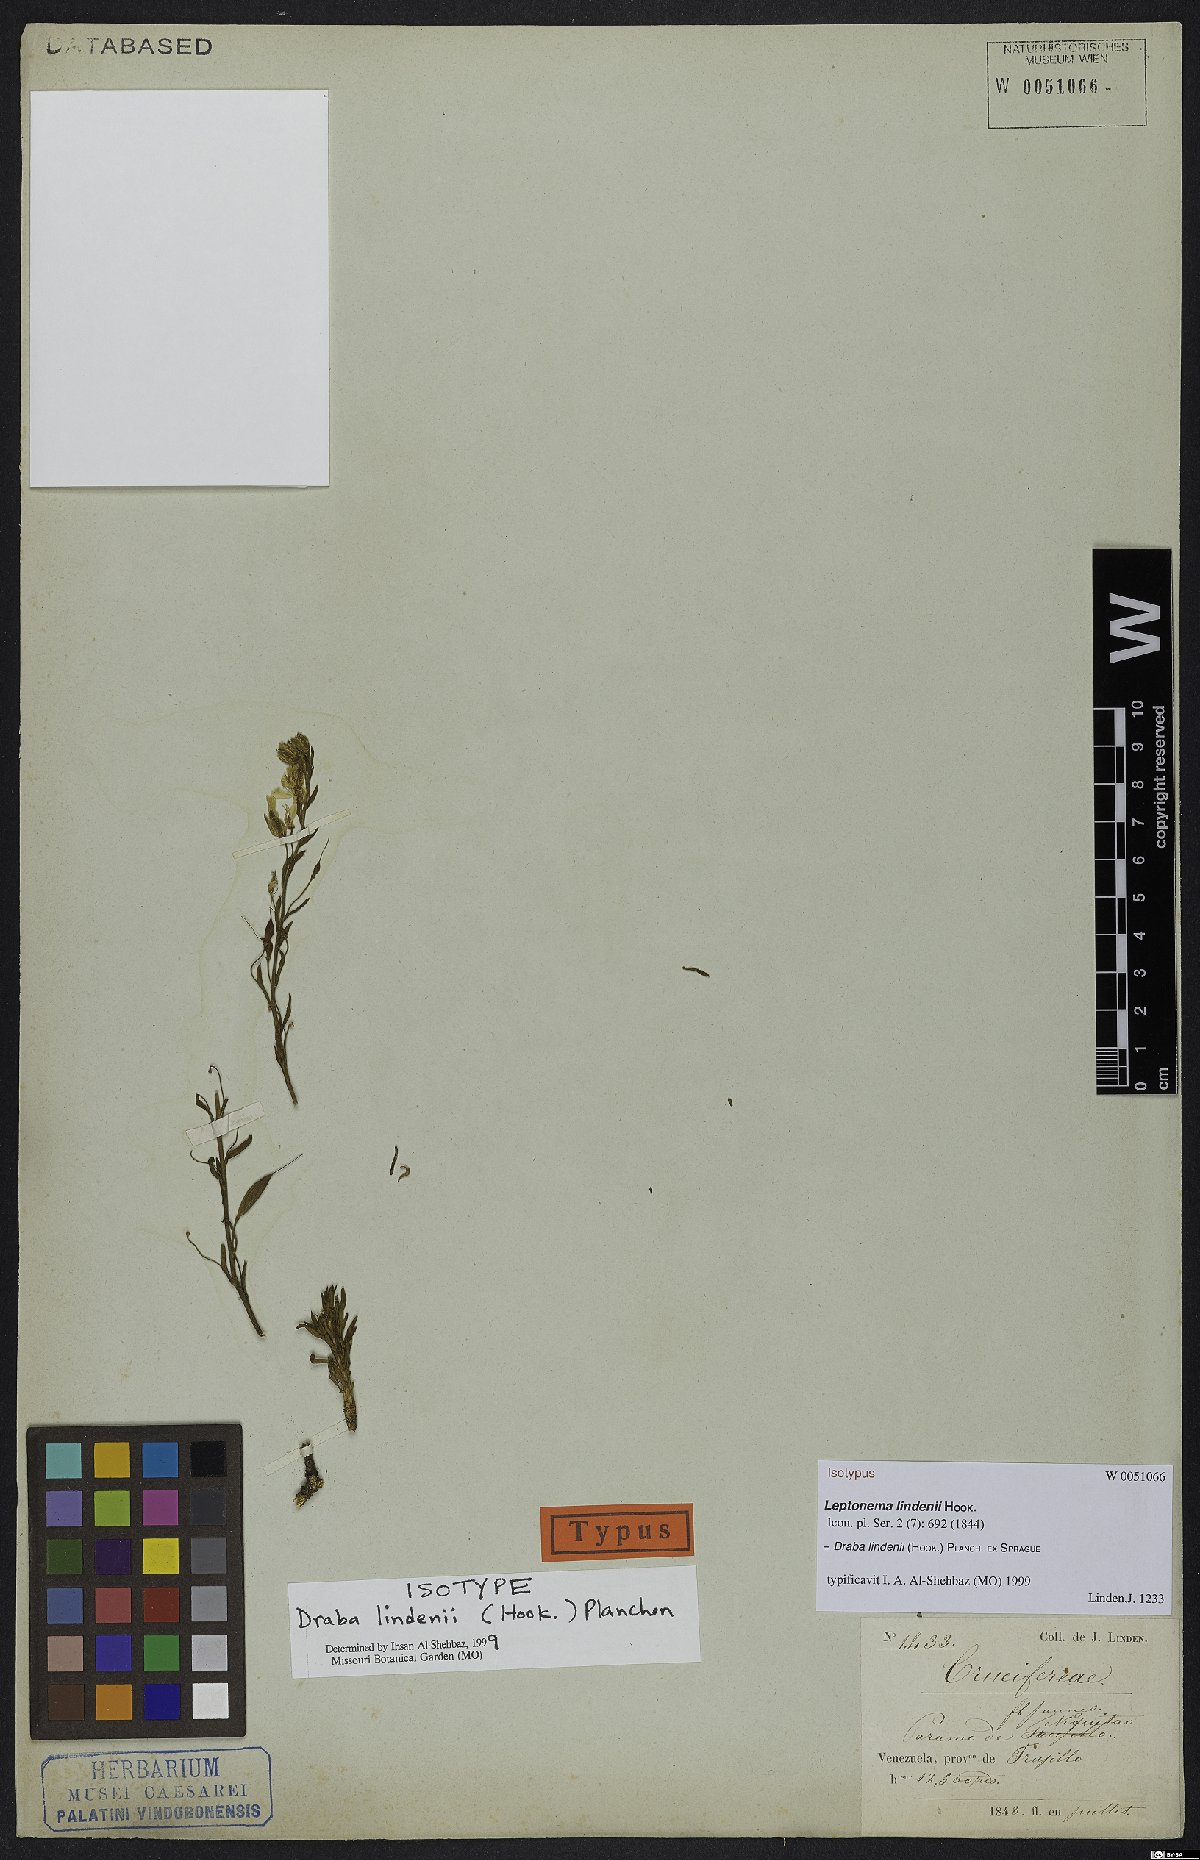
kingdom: Plantae
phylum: Tracheophyta
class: Magnoliopsida
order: Brassicales
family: Brassicaceae
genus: Draba
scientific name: Draba lindenii
